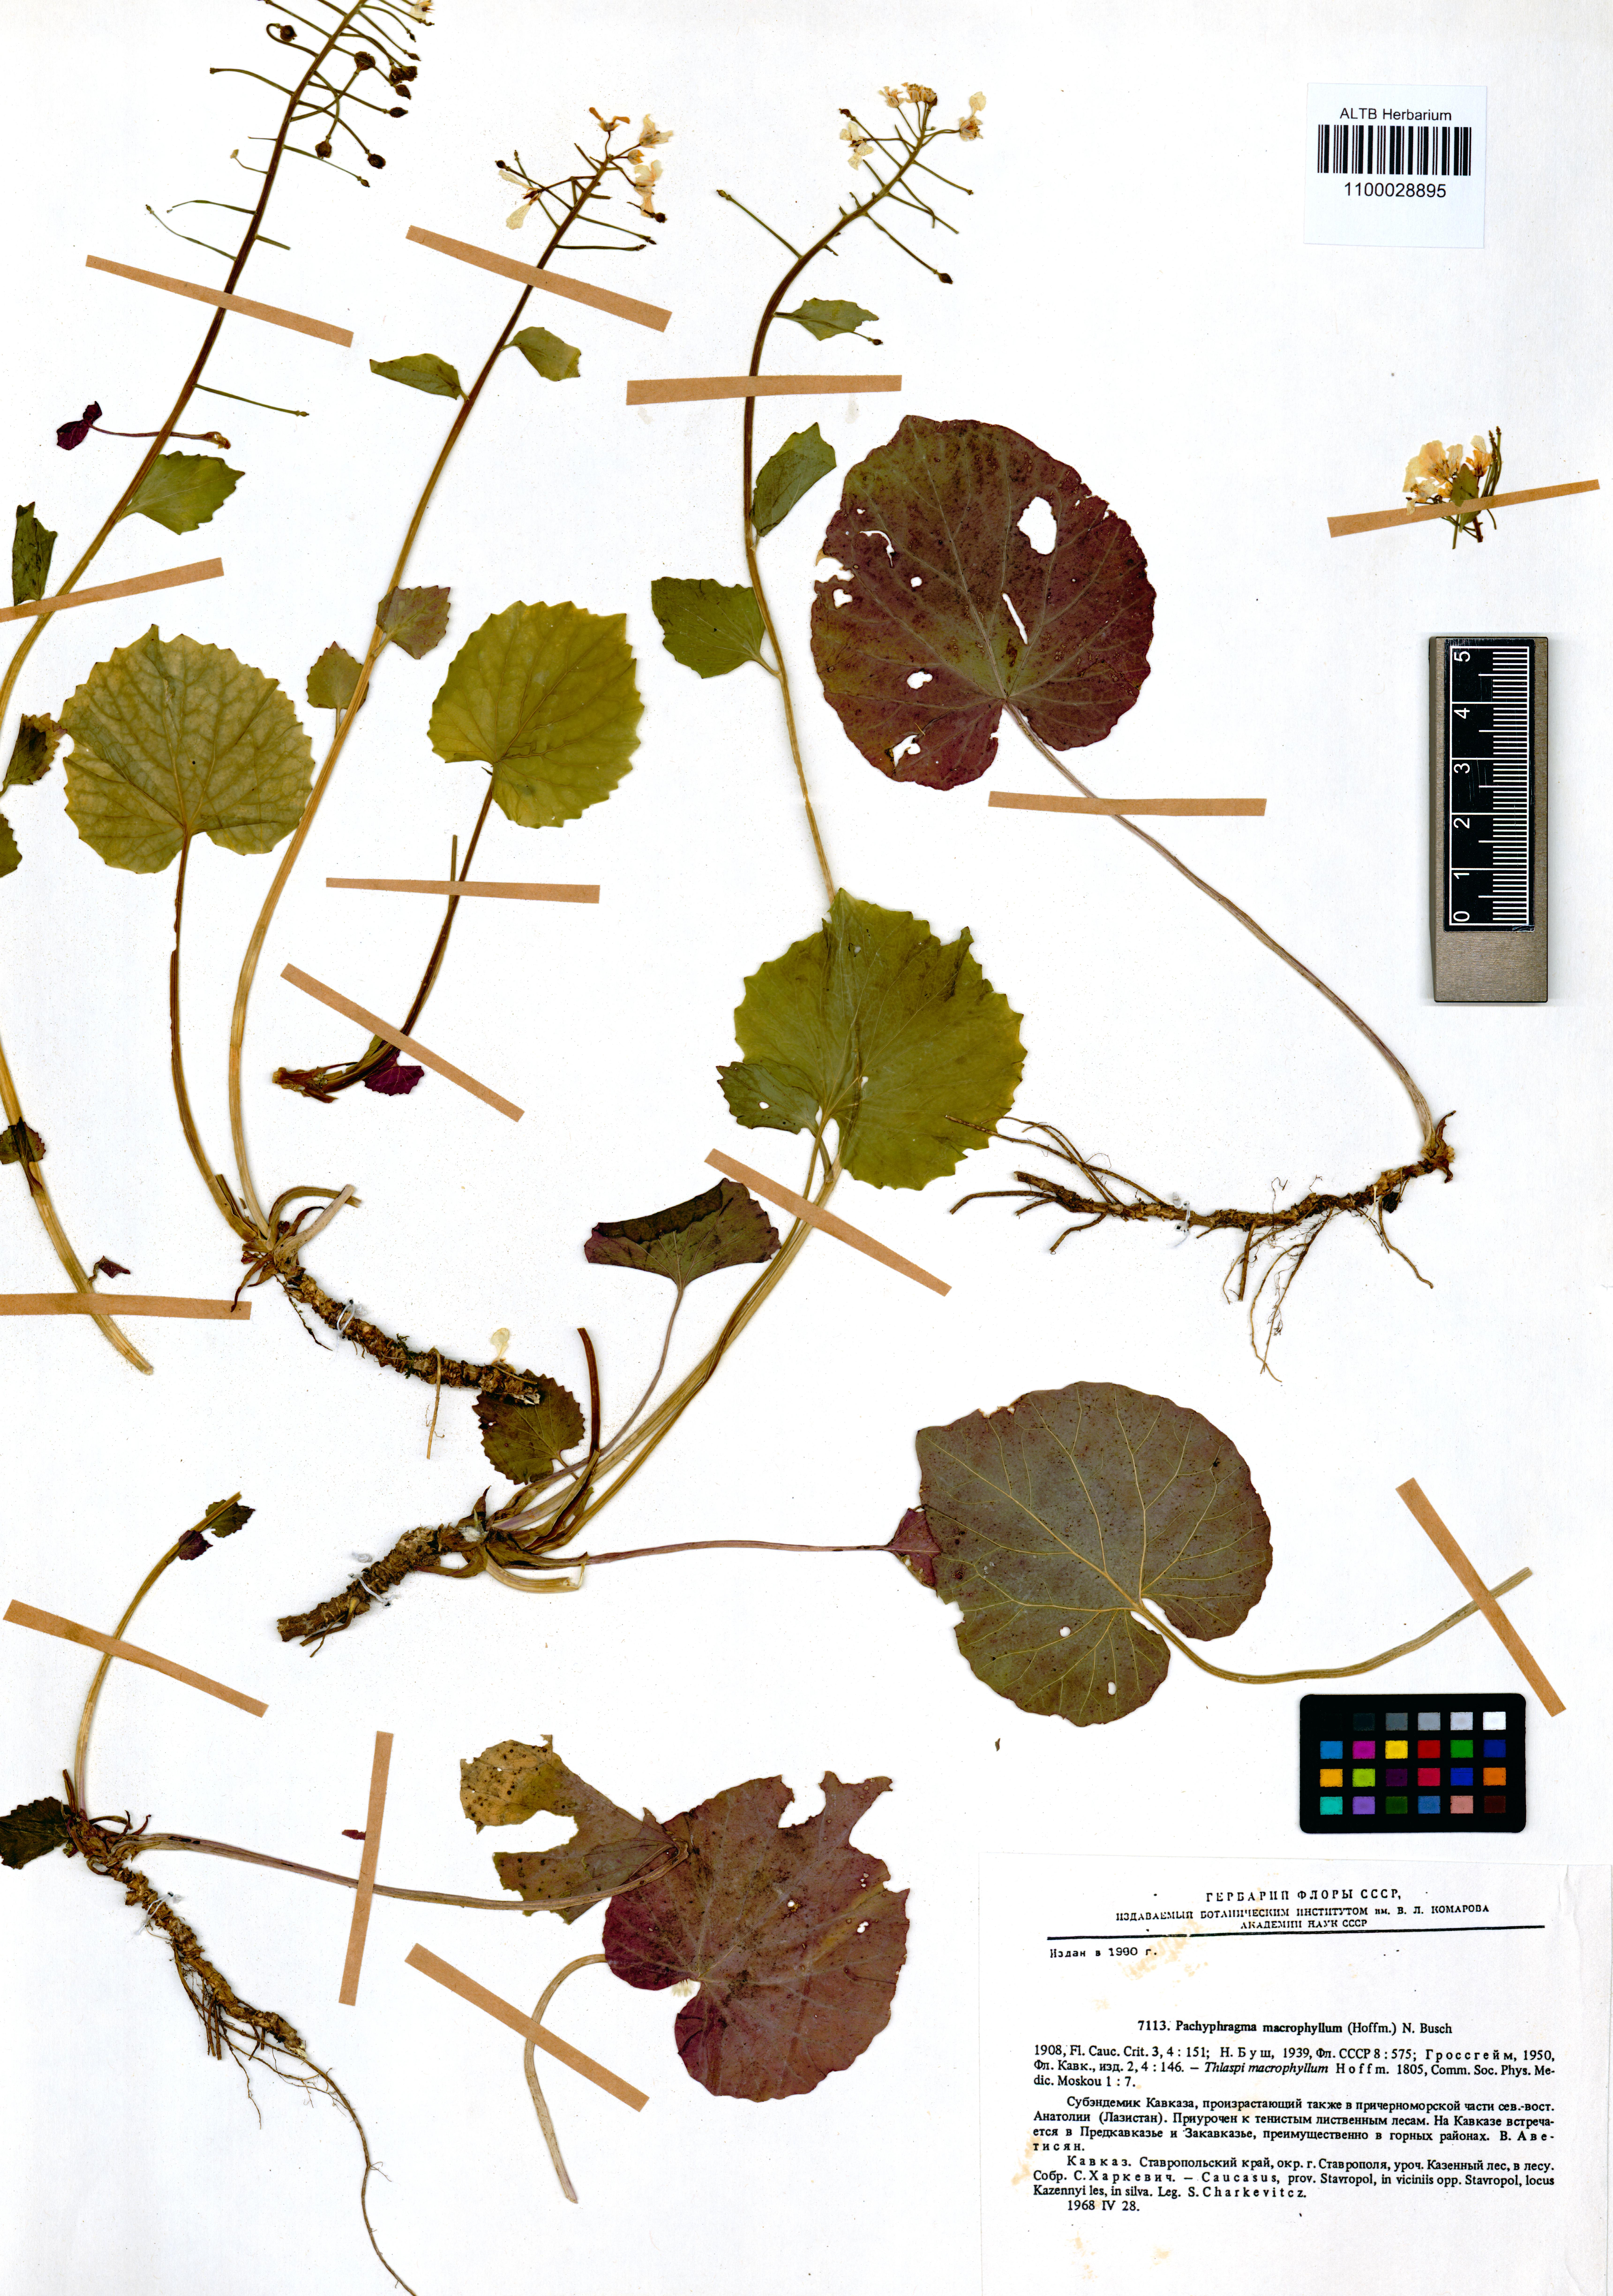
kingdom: Plantae
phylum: Tracheophyta
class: Magnoliopsida
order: Brassicales
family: Brassicaceae
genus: Pachyphragma
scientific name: Pachyphragma macrophyllum
